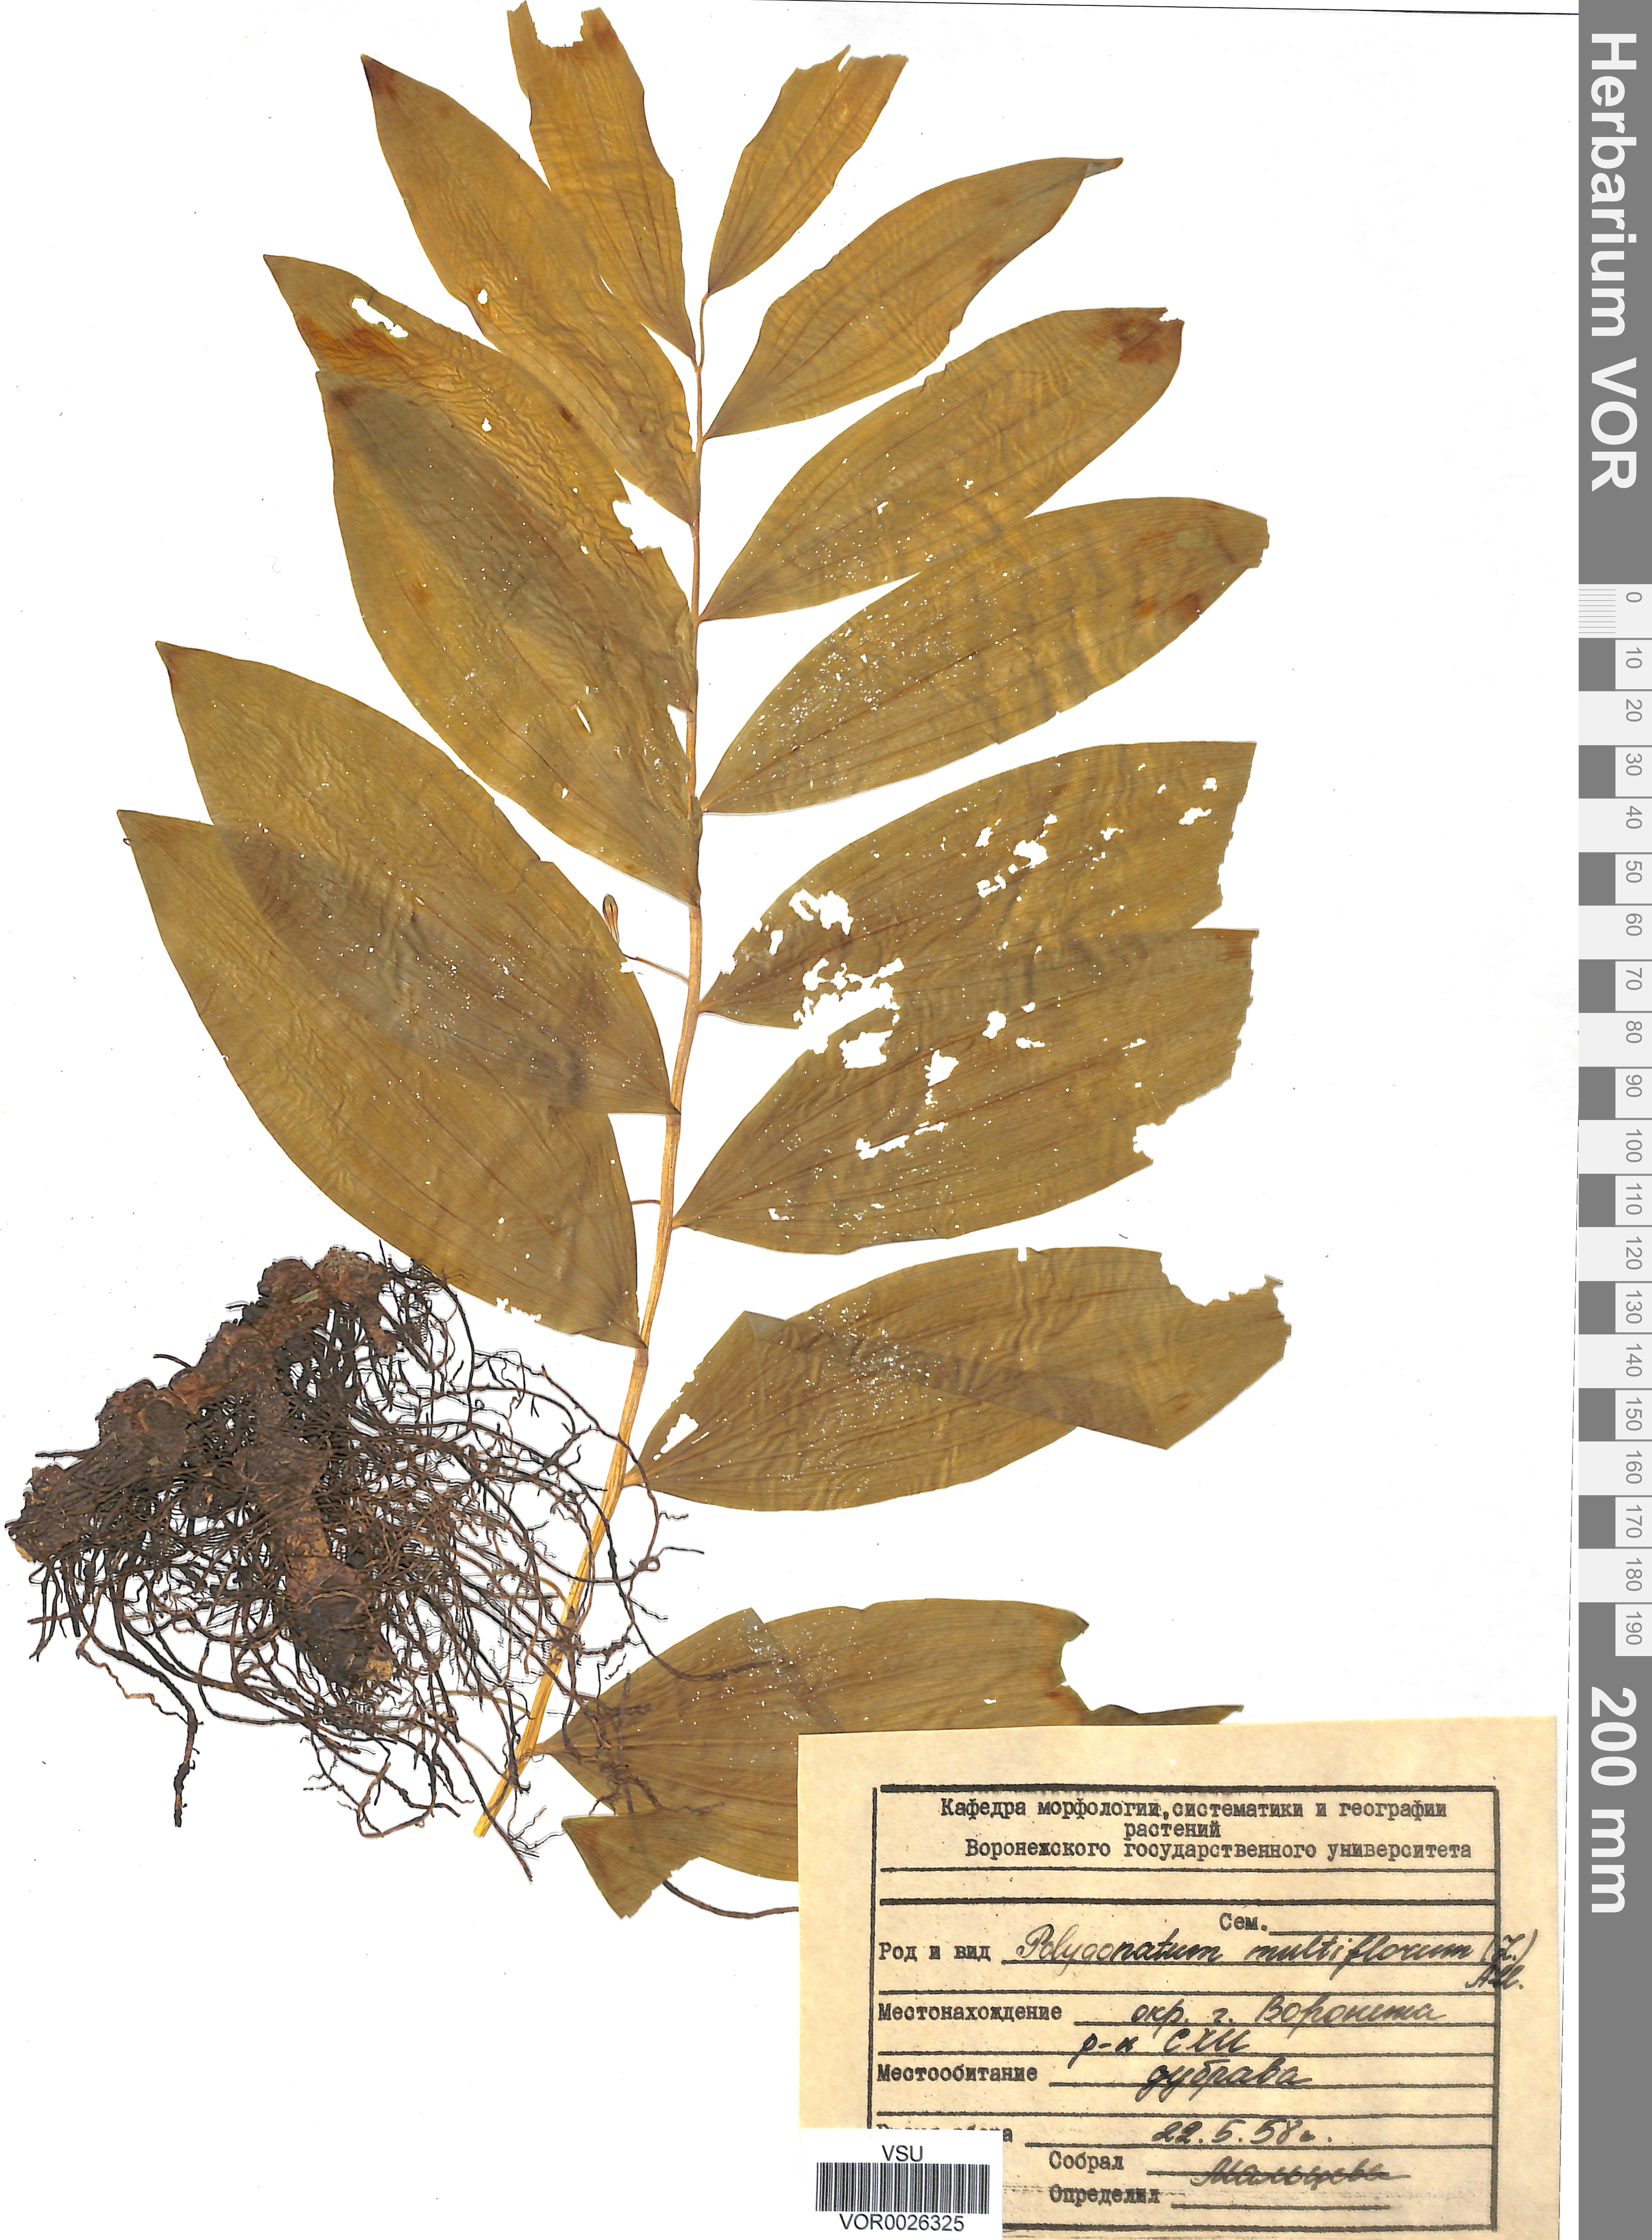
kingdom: Plantae
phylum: Tracheophyta
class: Liliopsida
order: Asparagales
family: Asparagaceae
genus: Polygonatum
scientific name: Polygonatum multiflorum
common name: Solomon's-seal
